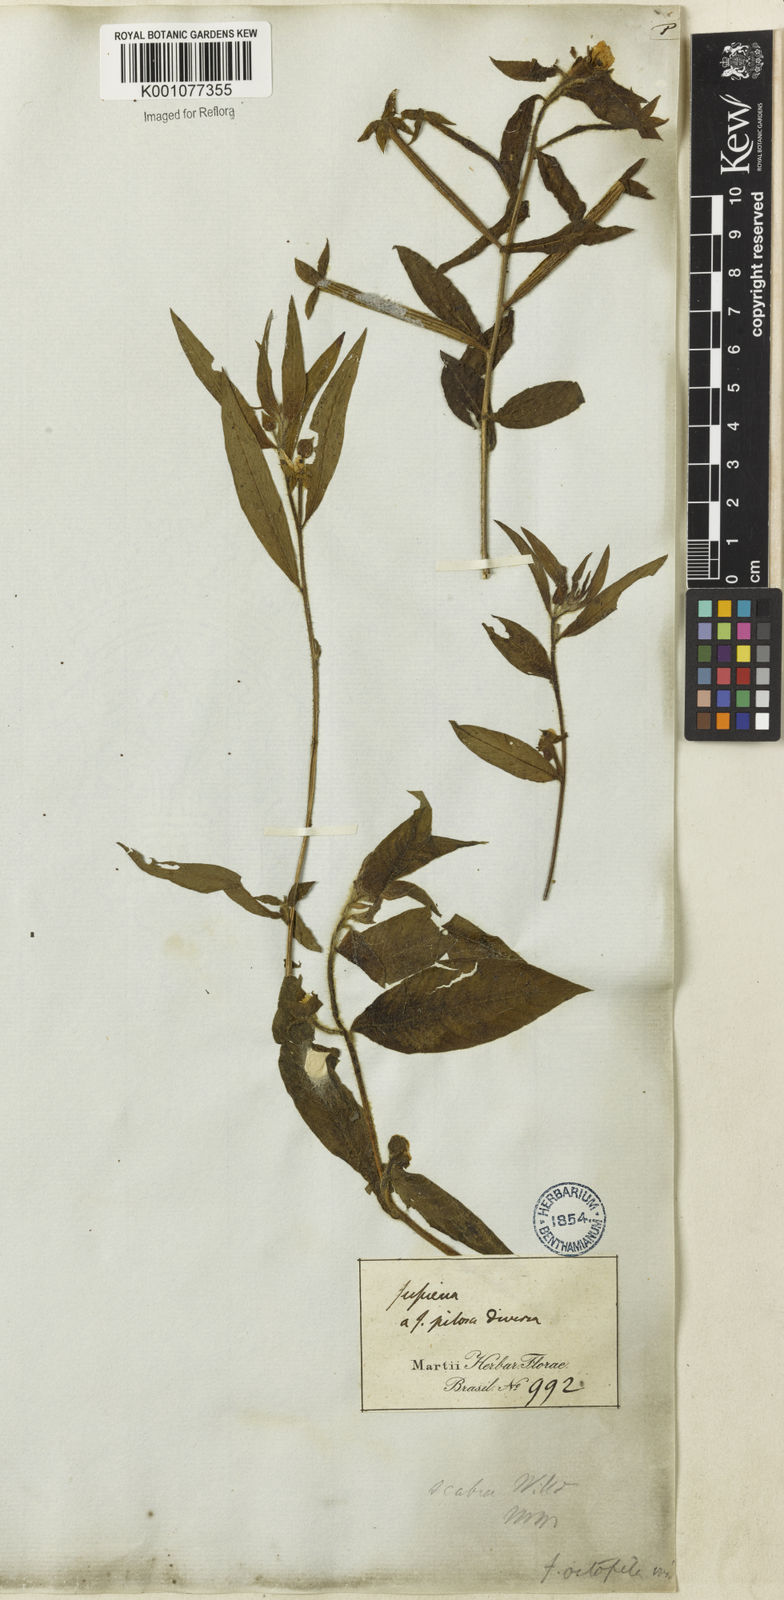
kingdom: Plantae
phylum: Tracheophyta
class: Magnoliopsida
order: Myrtales
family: Onagraceae
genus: Ludwigia
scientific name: Ludwigia octovalvis
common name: Water-primrose
